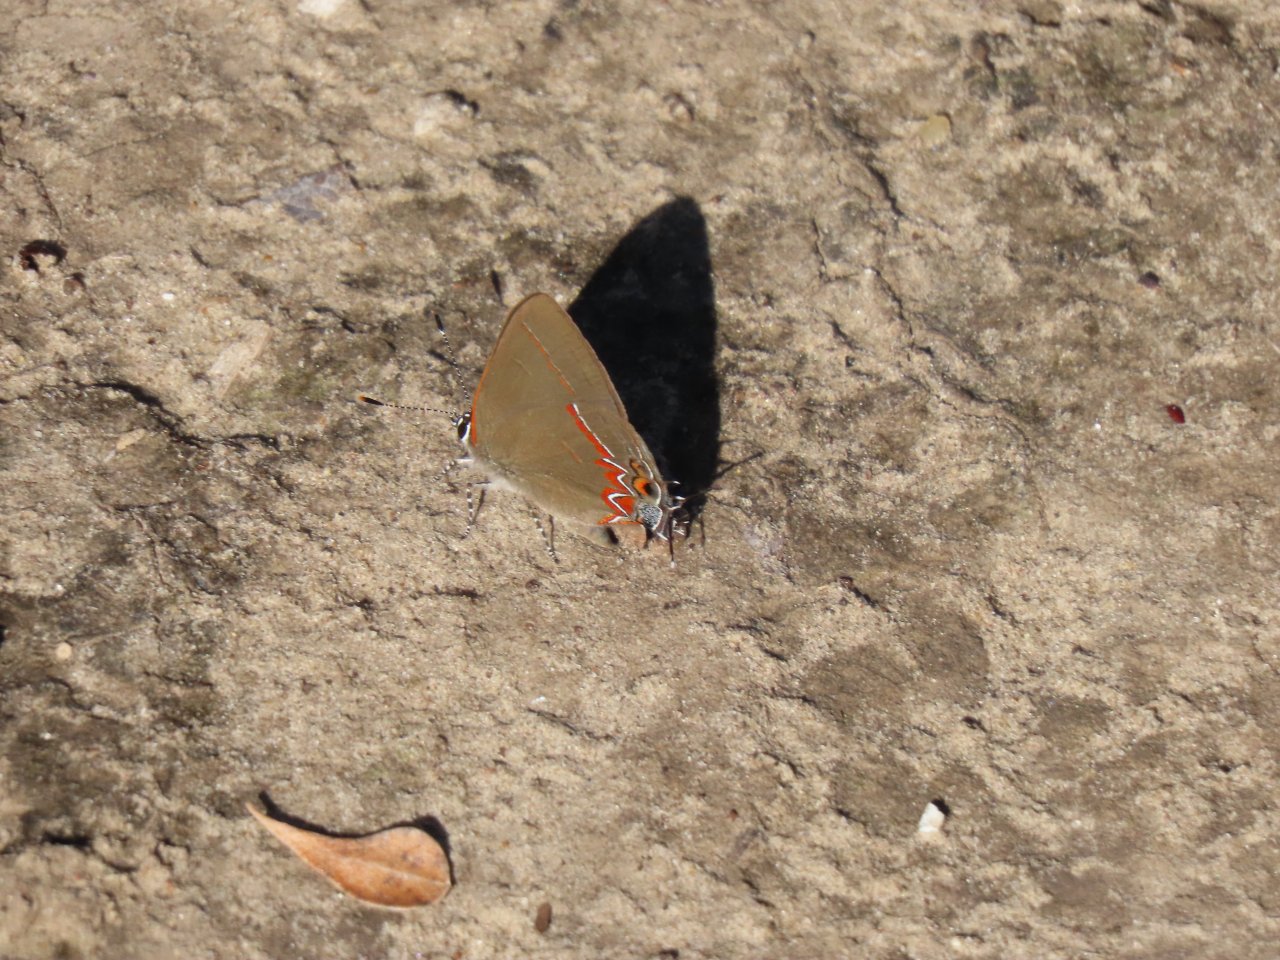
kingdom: Animalia
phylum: Arthropoda
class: Insecta
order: Lepidoptera
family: Lycaenidae
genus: Calycopis
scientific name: Calycopis isobeon
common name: Dusky-blue Groundstreak
